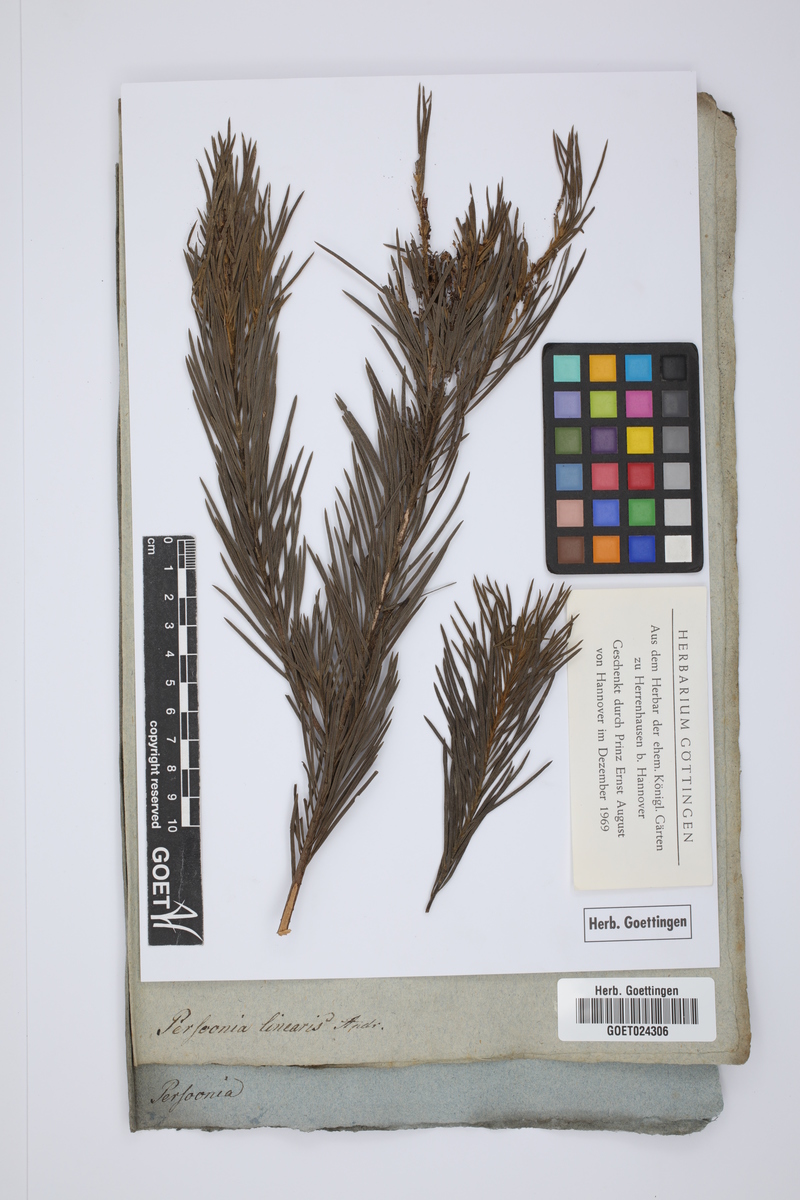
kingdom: Plantae
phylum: Tracheophyta
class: Magnoliopsida
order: Proteales
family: Proteaceae
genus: Persoonia
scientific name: Persoonia linearis
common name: Narrow-leaf geebung
